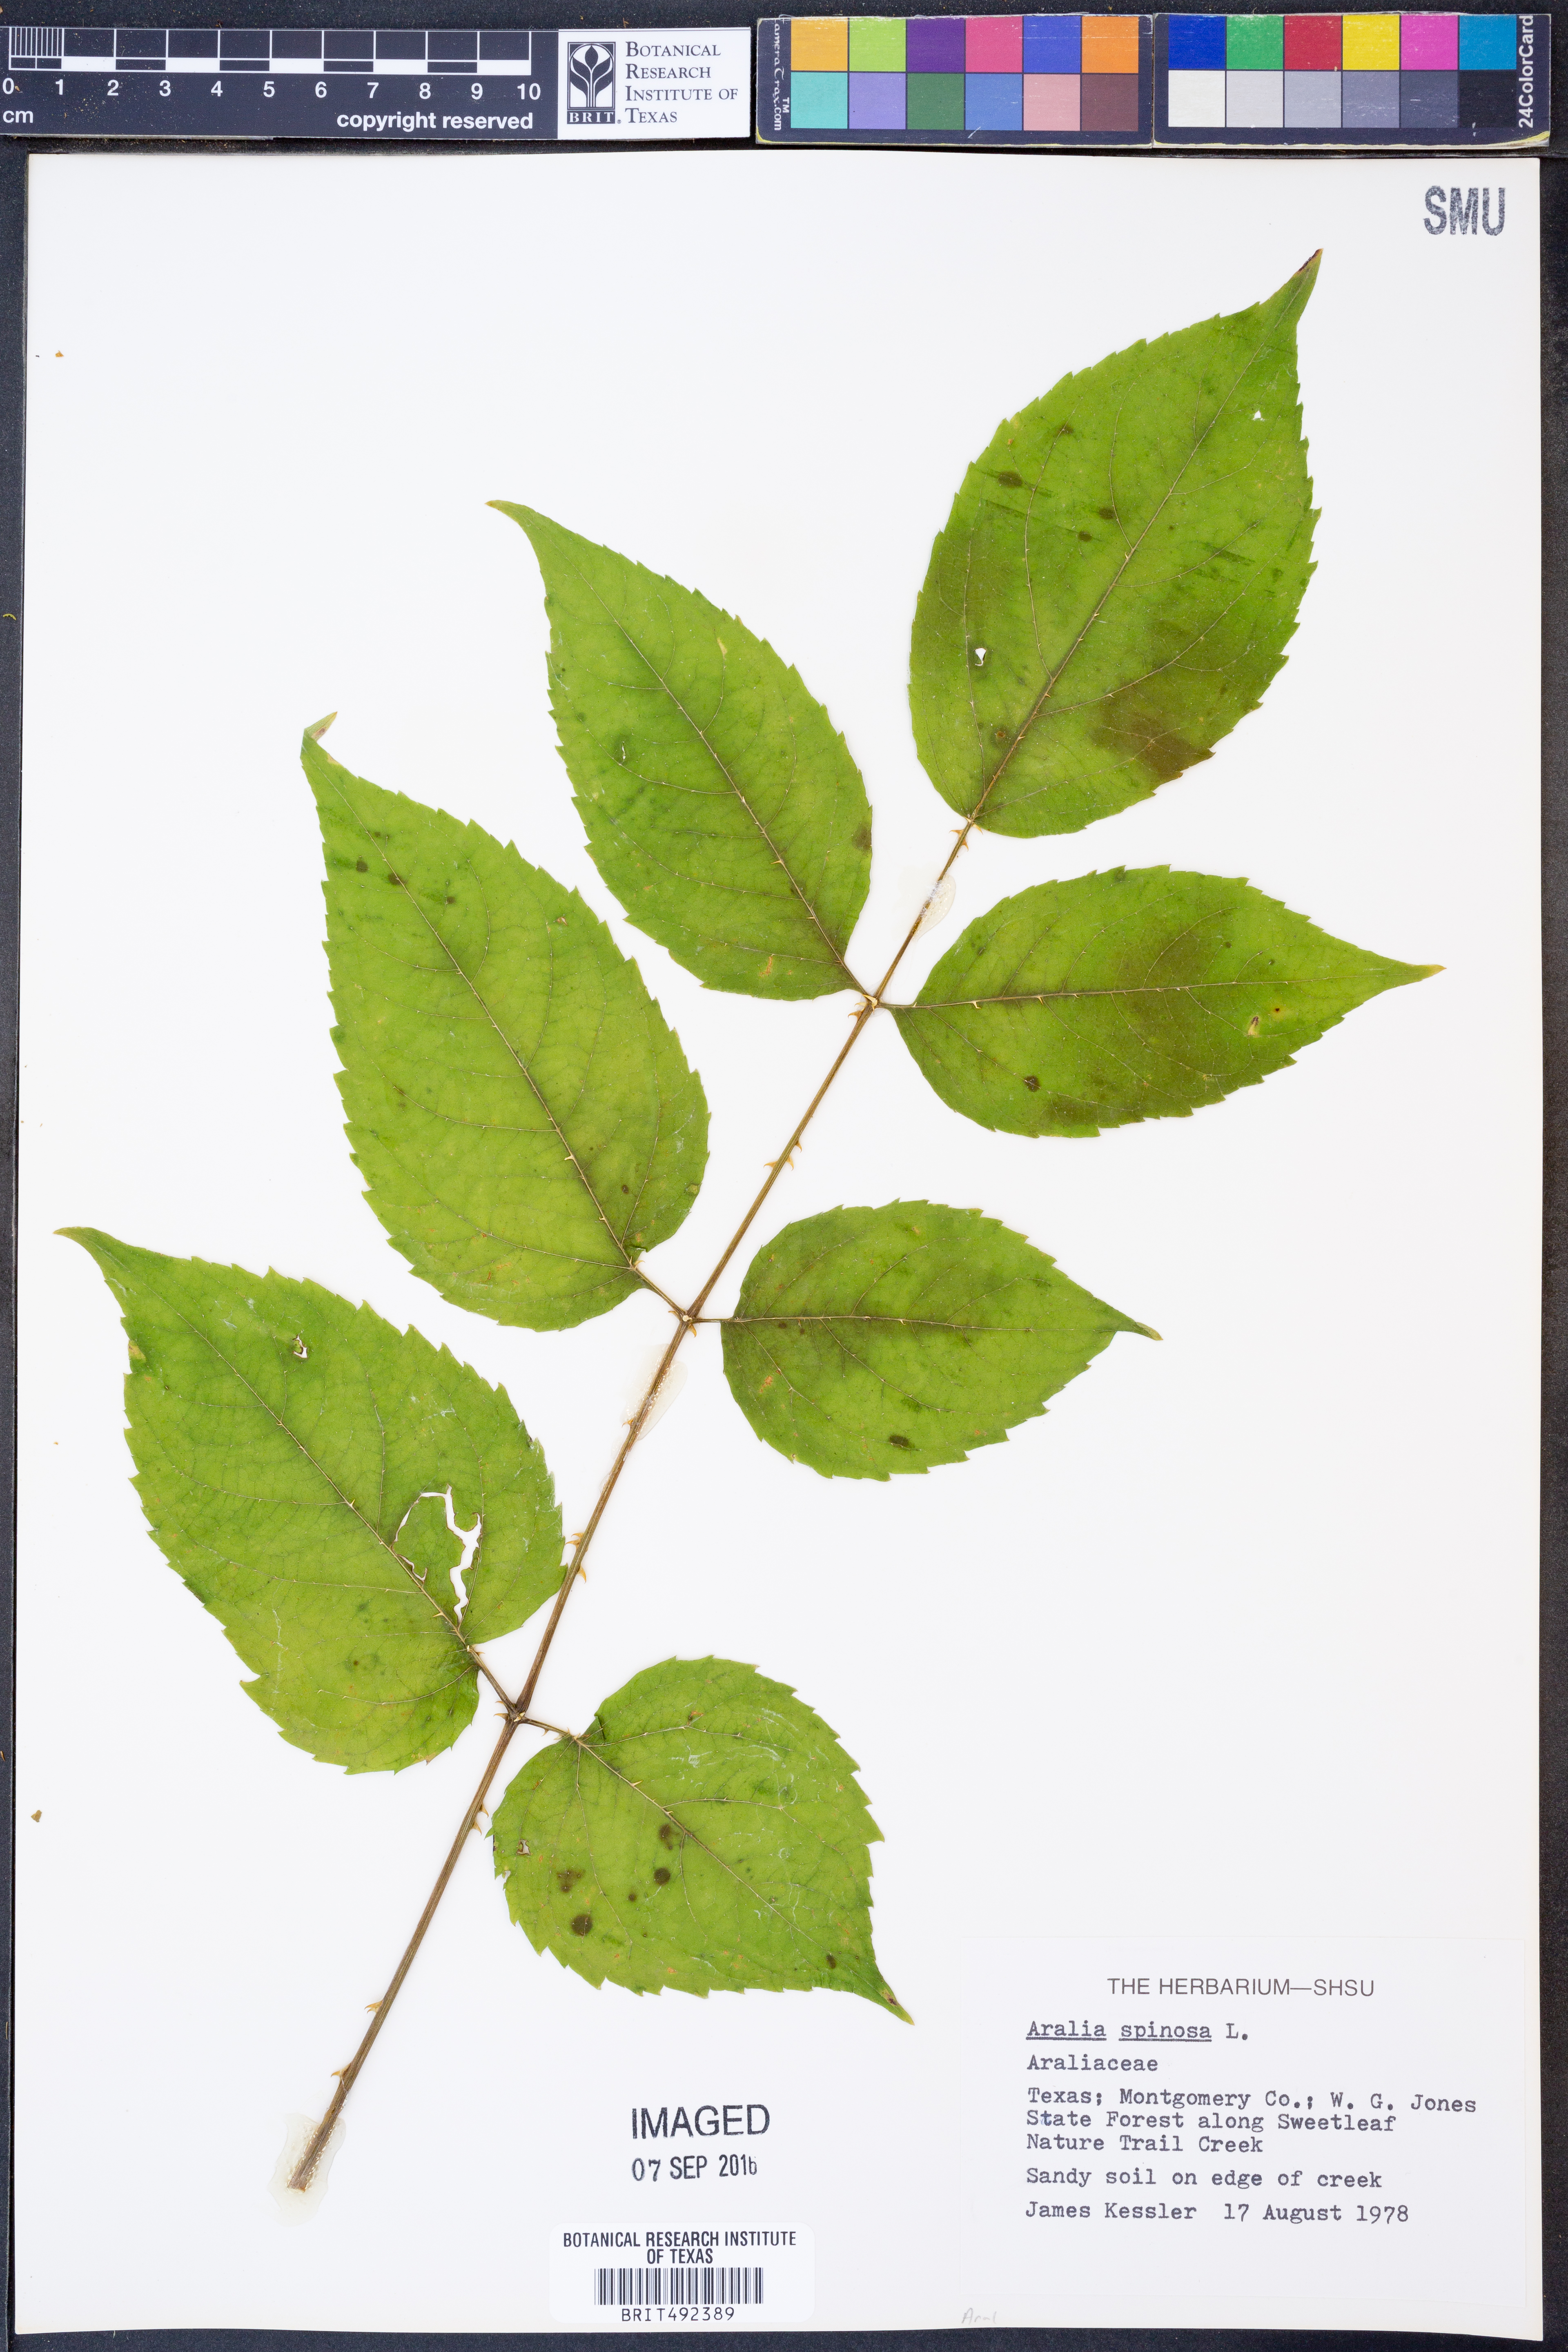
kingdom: Plantae
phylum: Tracheophyta
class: Magnoliopsida
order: Apiales
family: Araliaceae
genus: Aralia
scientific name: Aralia spinosa
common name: Hercules'-club
